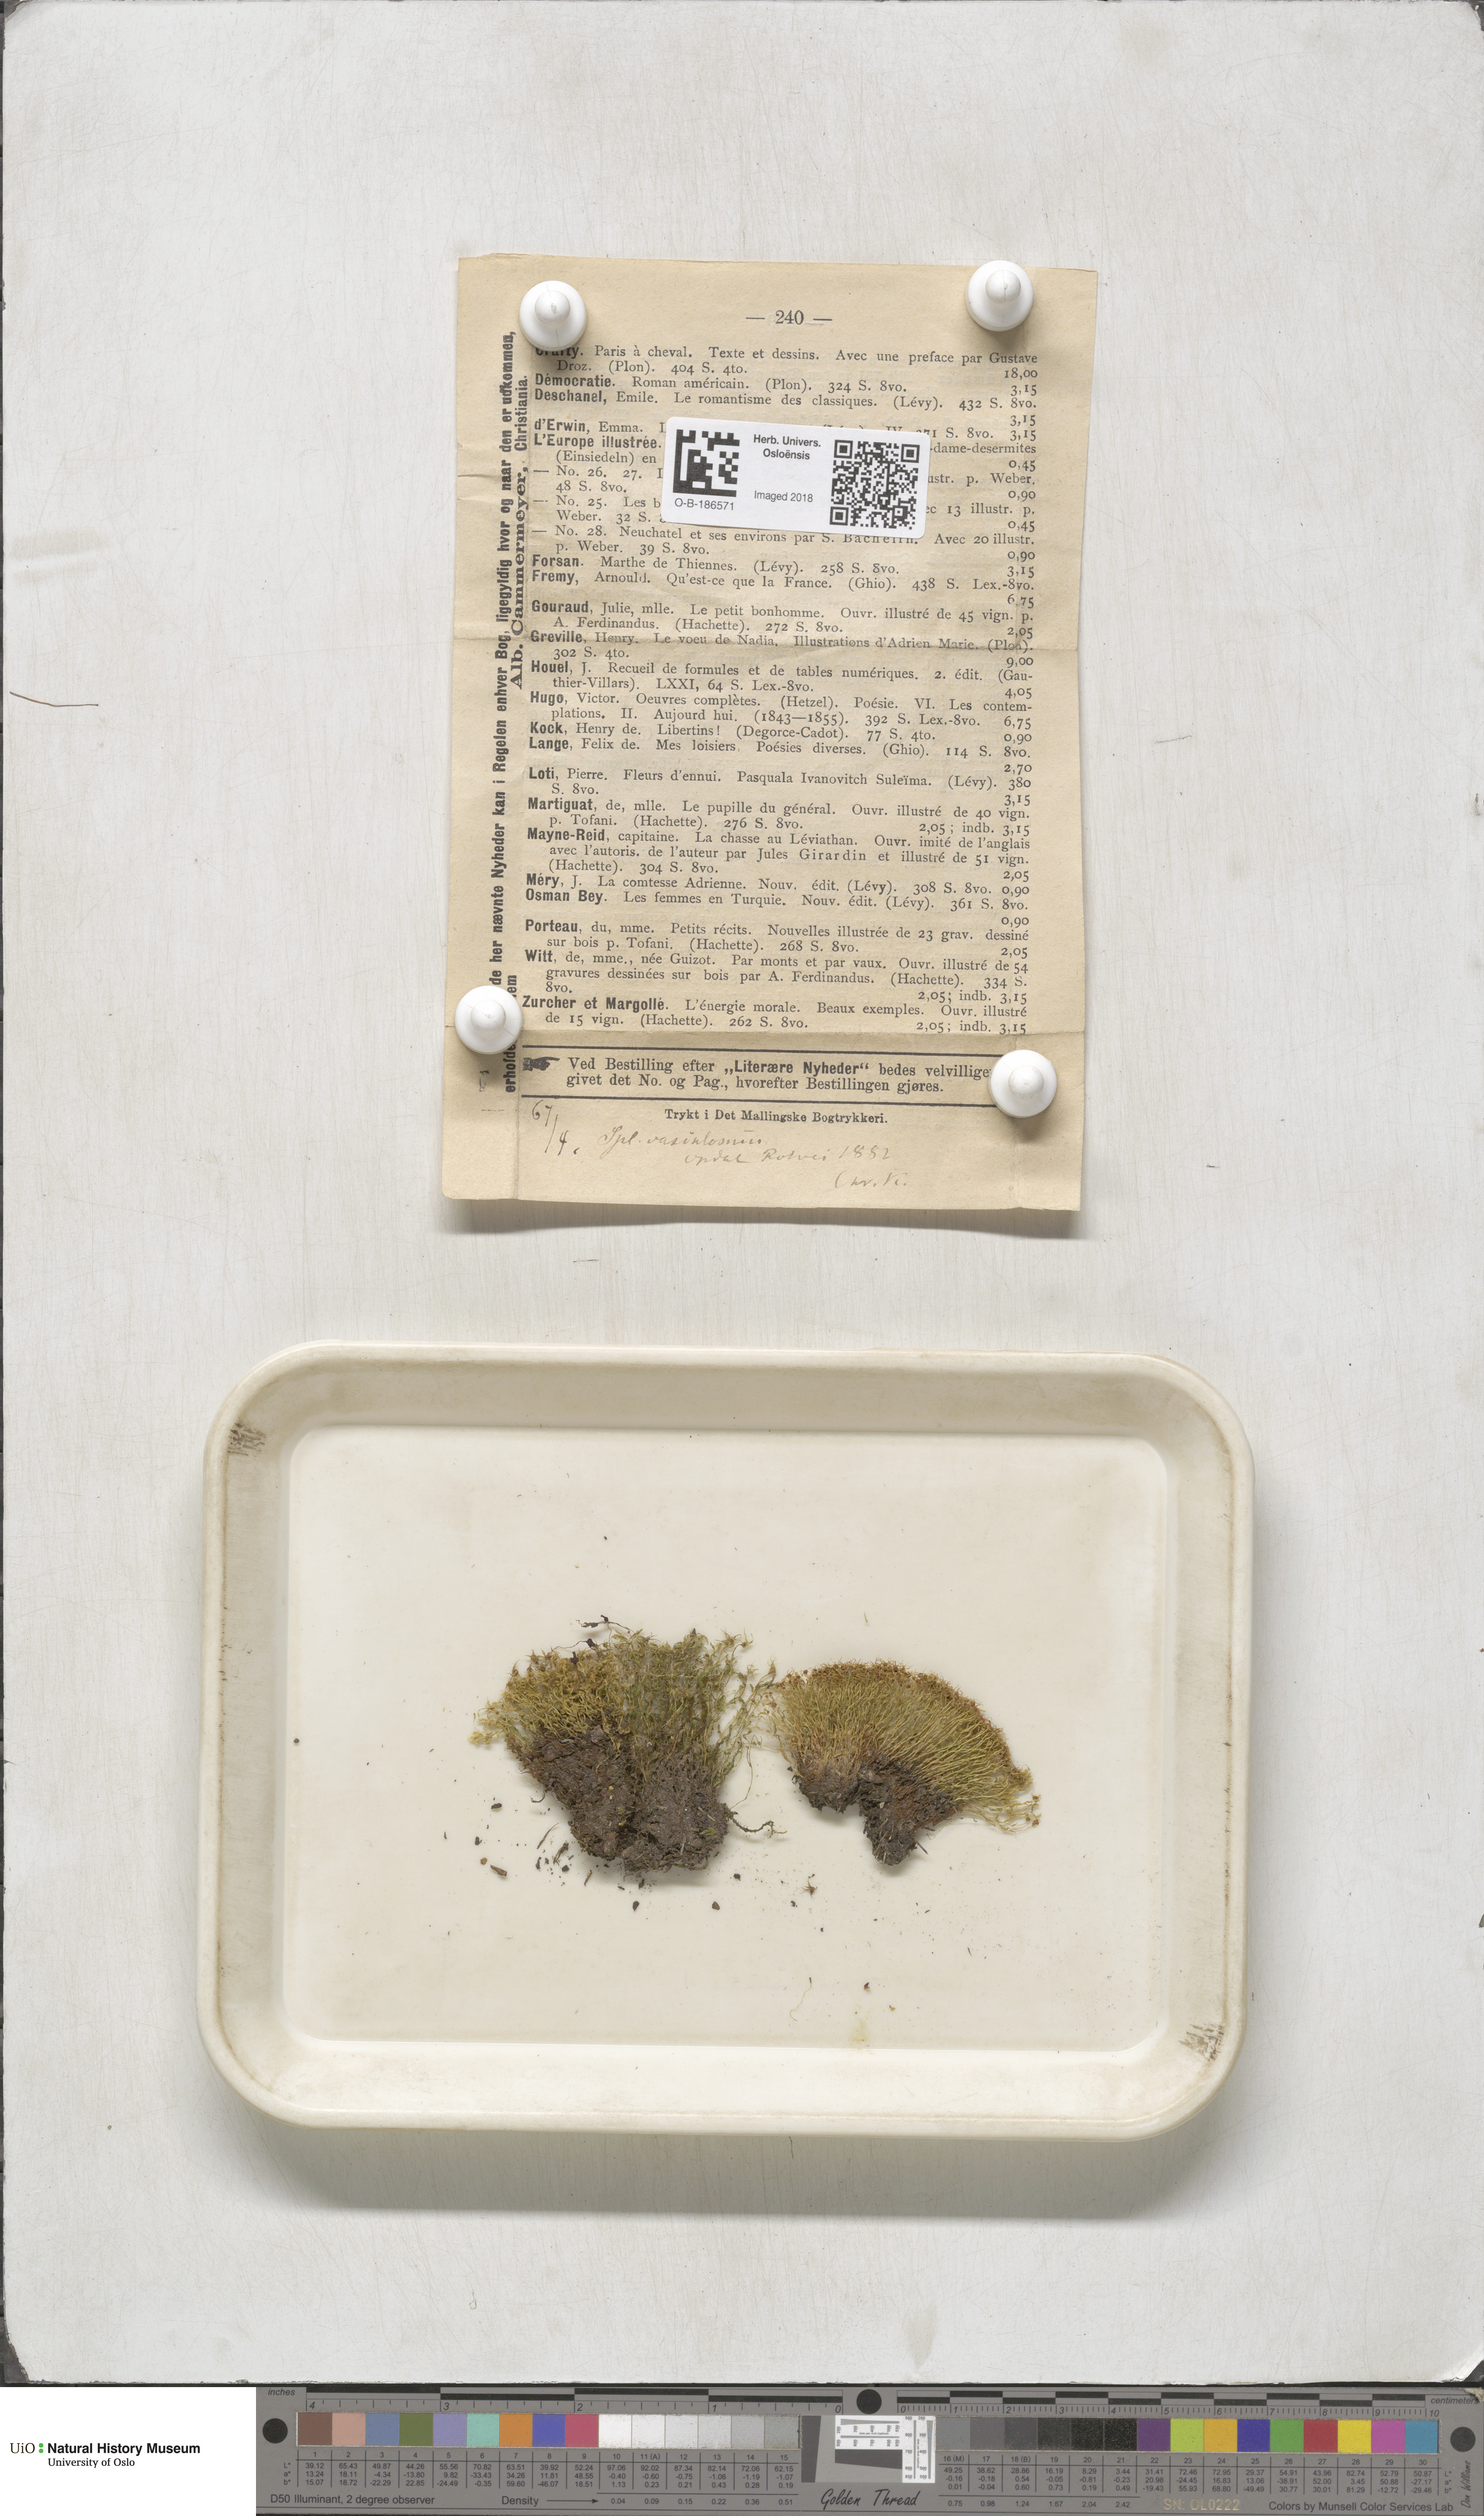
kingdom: Plantae
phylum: Bryophyta
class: Bryopsida
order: Splachnales
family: Splachnaceae
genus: Splachnum
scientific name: Splachnum vasculosum
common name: Rugged dung moss
